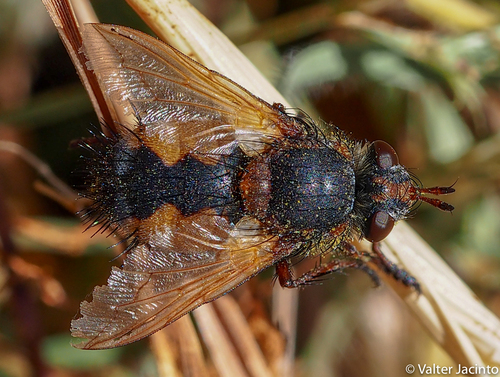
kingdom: Animalia
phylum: Arthropoda
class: Insecta
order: Diptera
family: Tachinidae
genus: Tachina
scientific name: Tachina magnicornis
